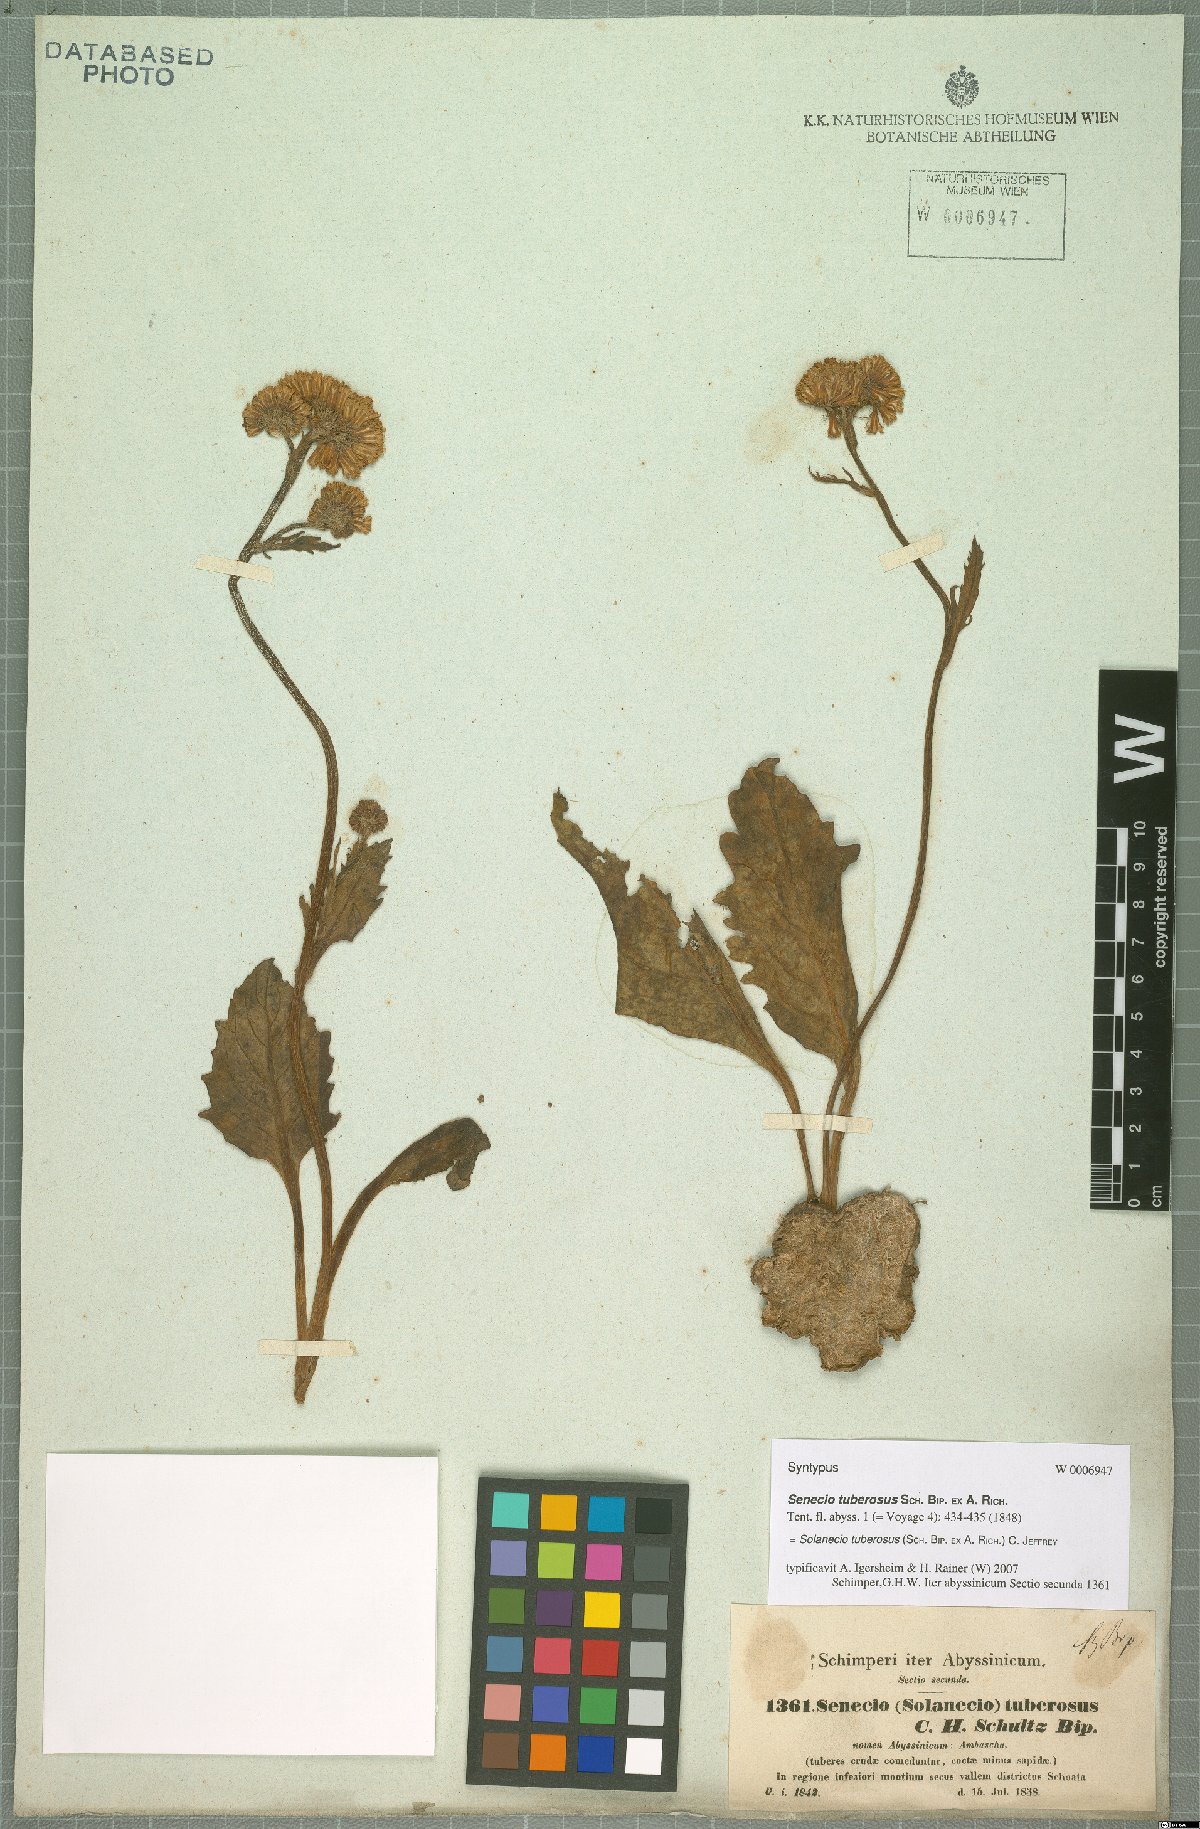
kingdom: Plantae
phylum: Tracheophyta
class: Magnoliopsida
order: Asterales
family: Asteraceae
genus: Solanecio
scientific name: Solanecio tuberosus
